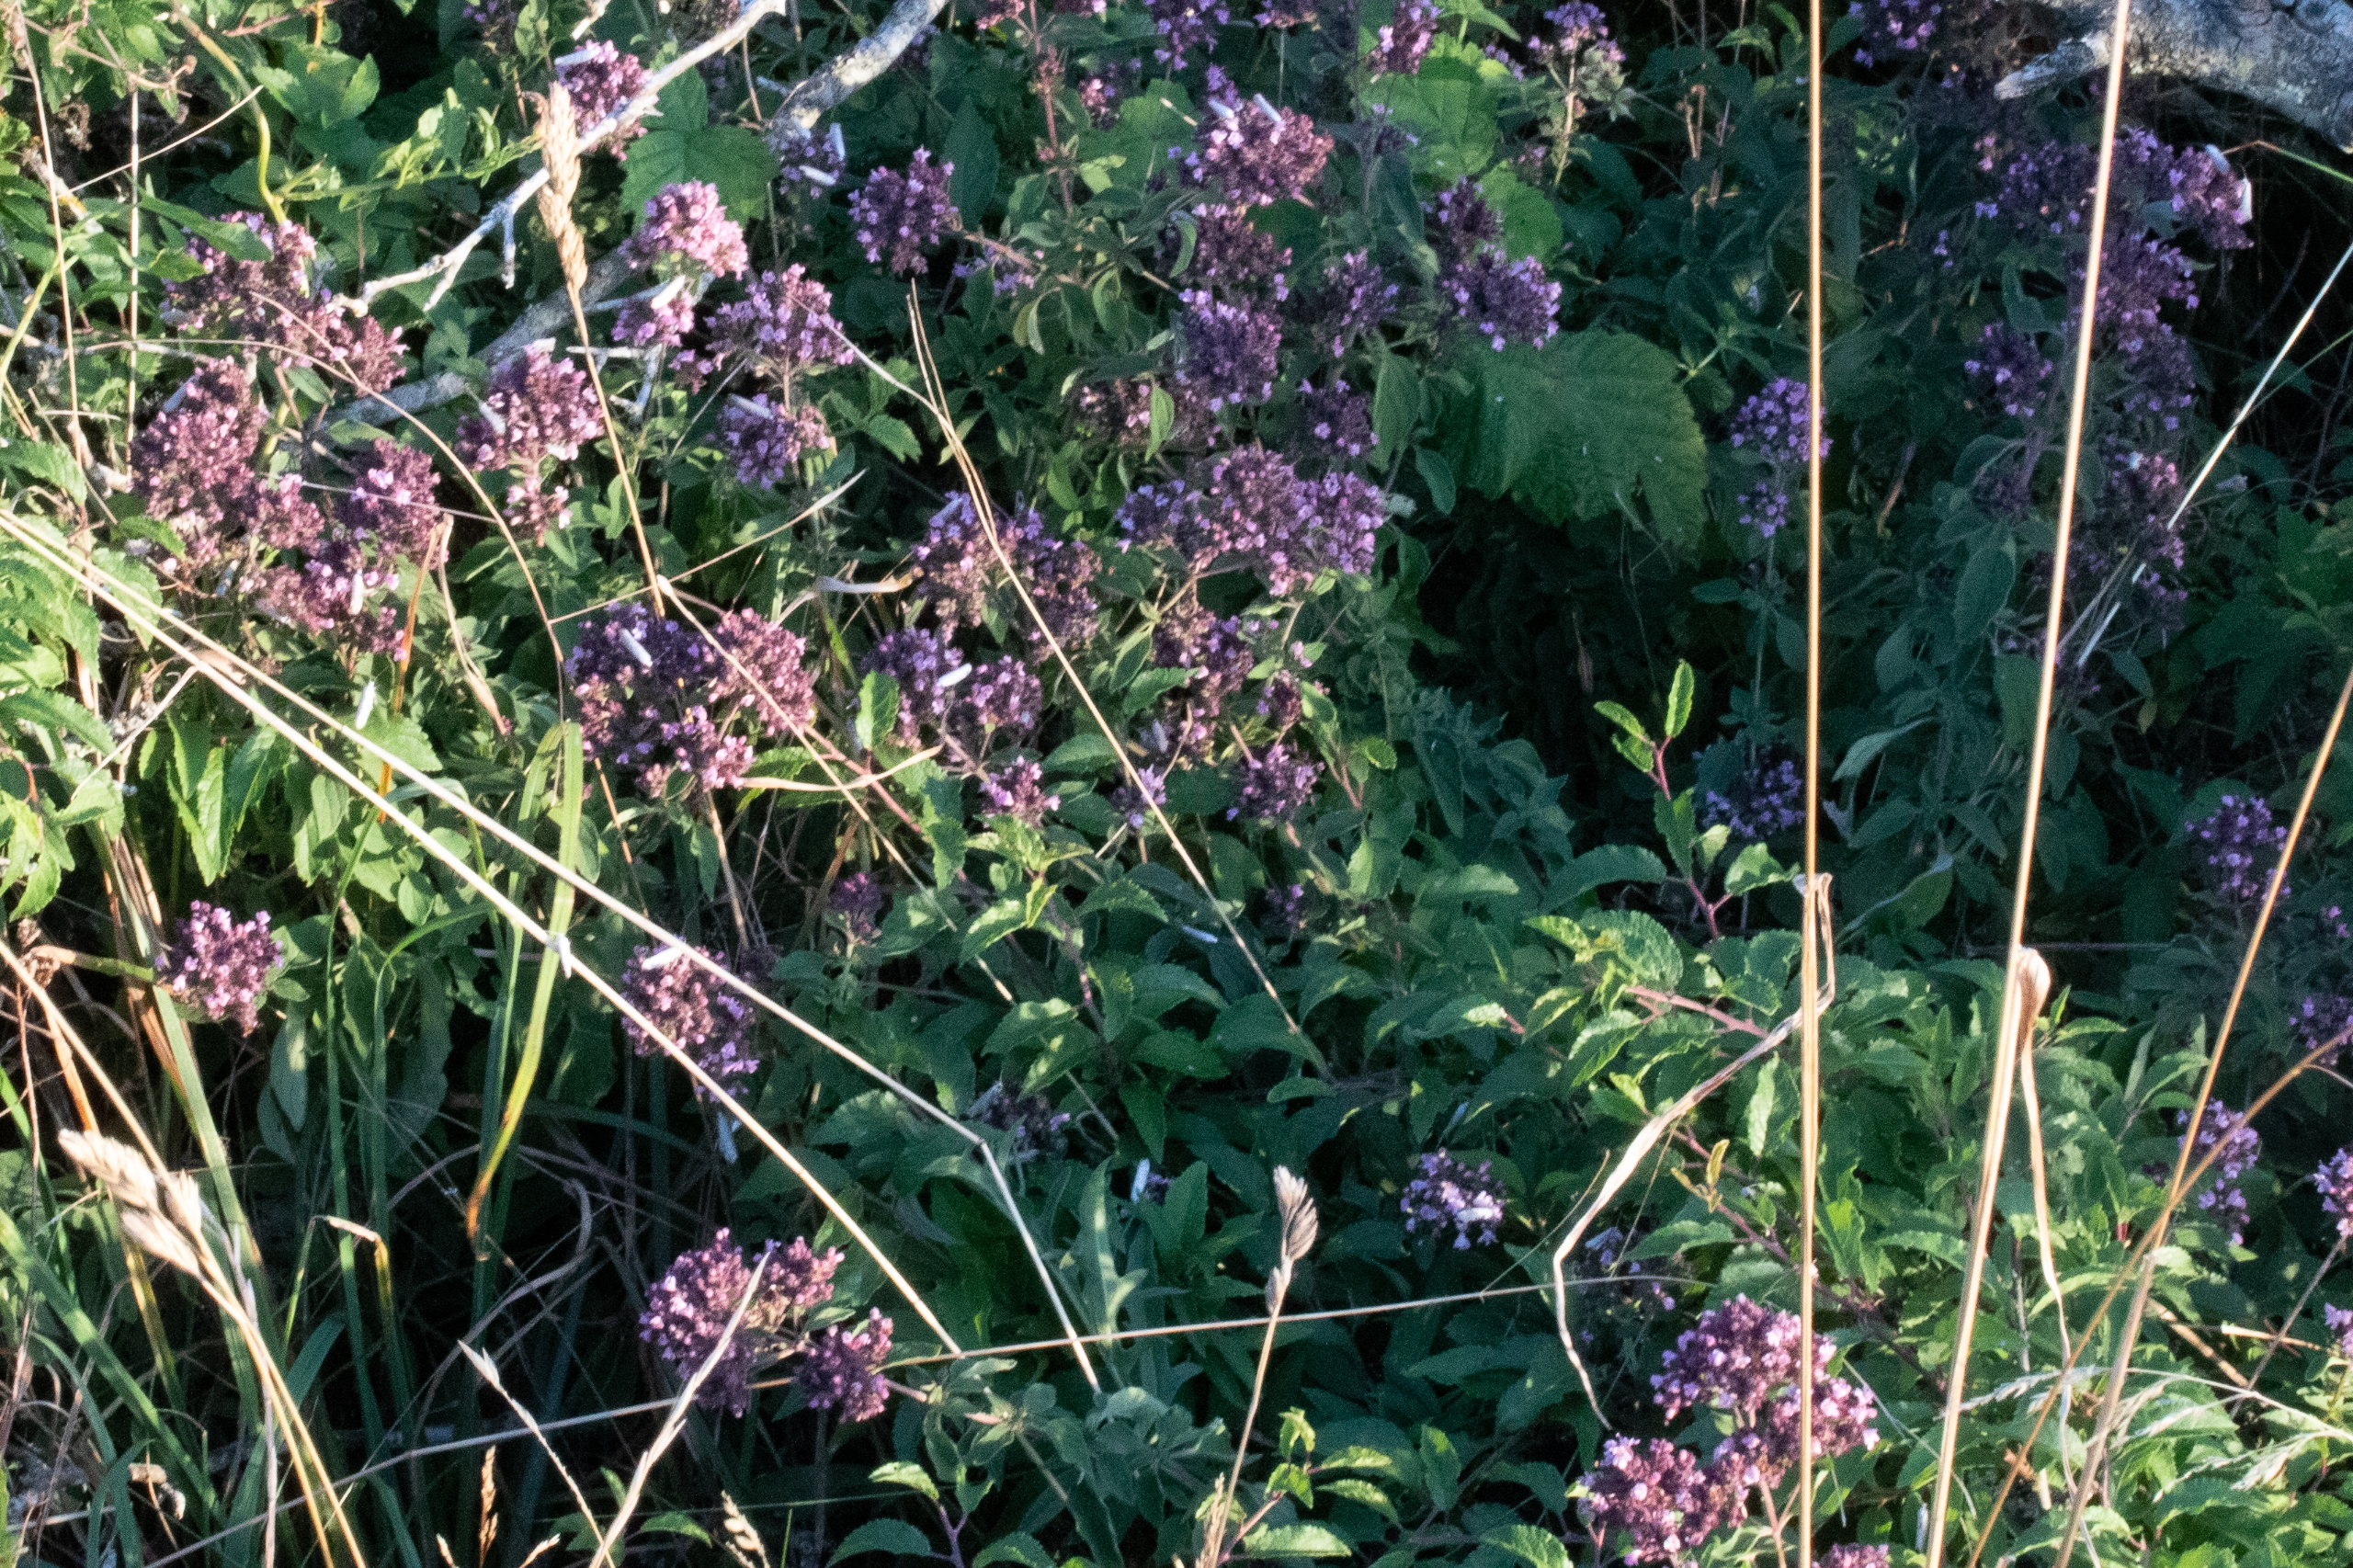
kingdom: Plantae
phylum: Tracheophyta
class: Magnoliopsida
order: Lamiales
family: Lamiaceae
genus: Origanum
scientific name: Origanum vulgare
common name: Merian
